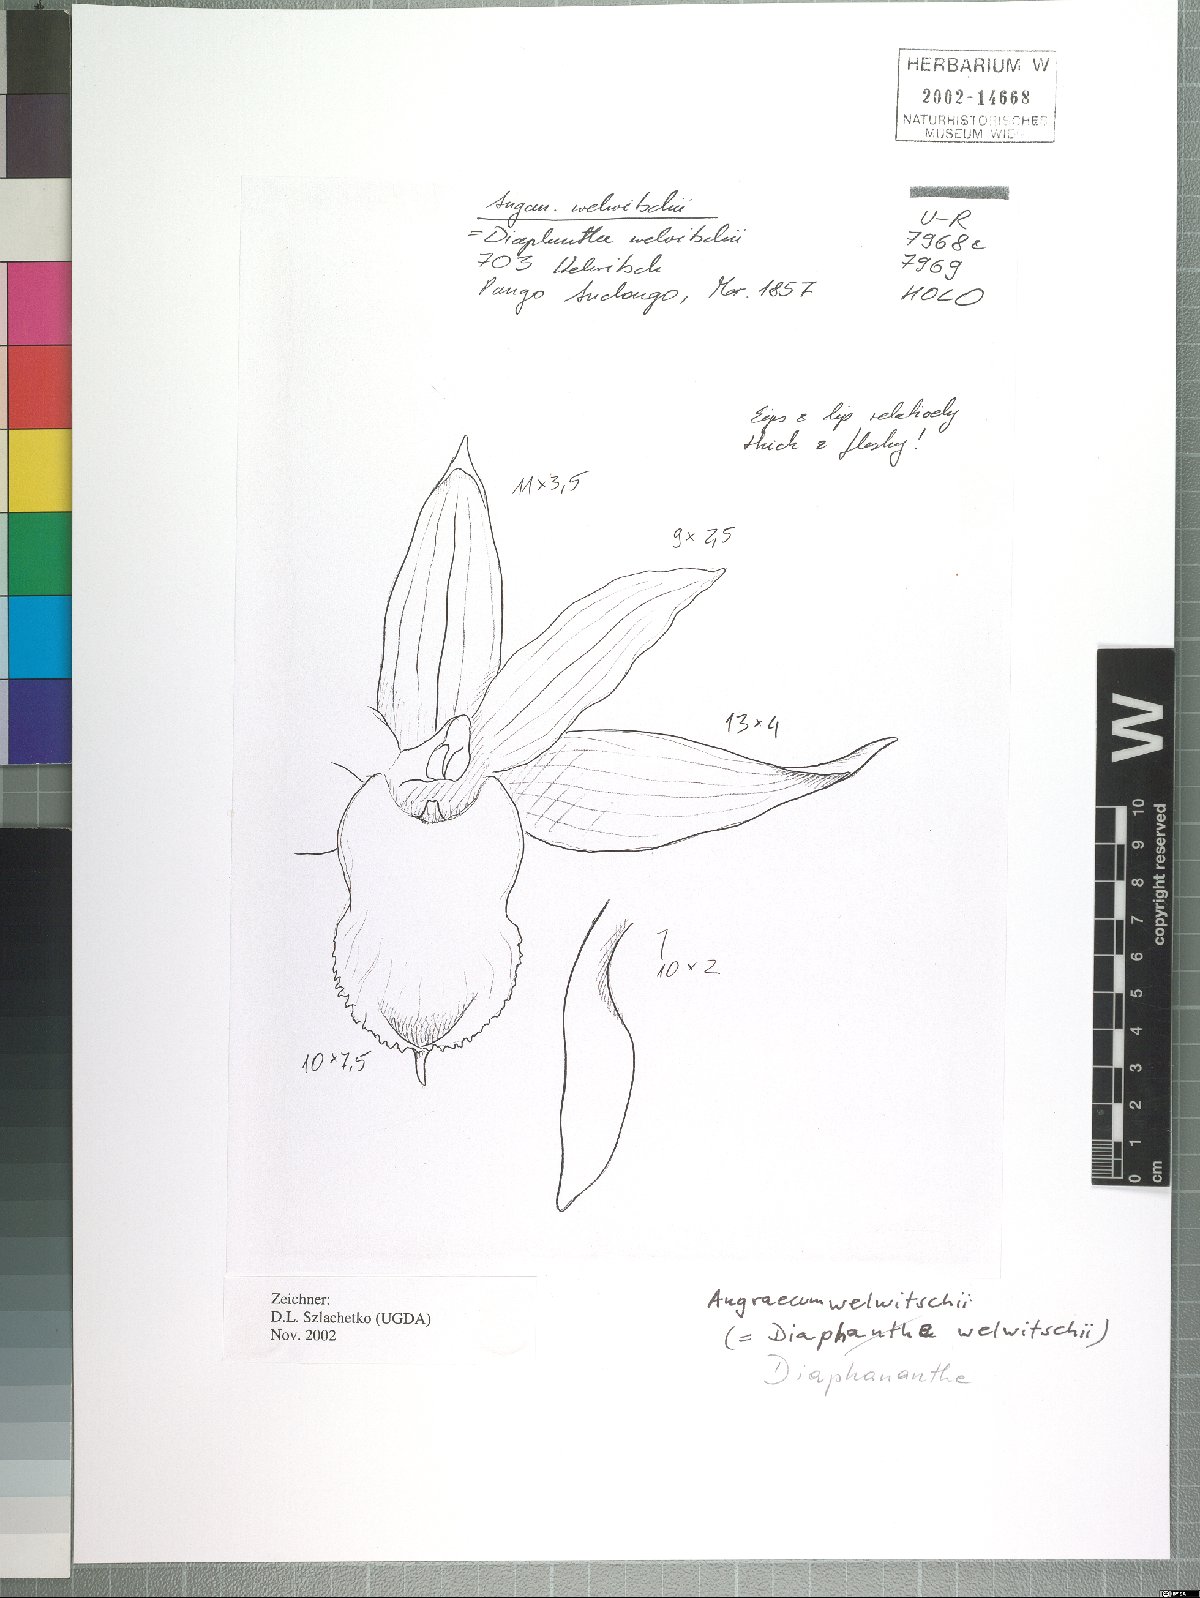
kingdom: Plantae
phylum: Tracheophyta
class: Liliopsida
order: Asparagales
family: Orchidaceae
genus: Diaphananthe
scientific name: Diaphananthe welwitschii
